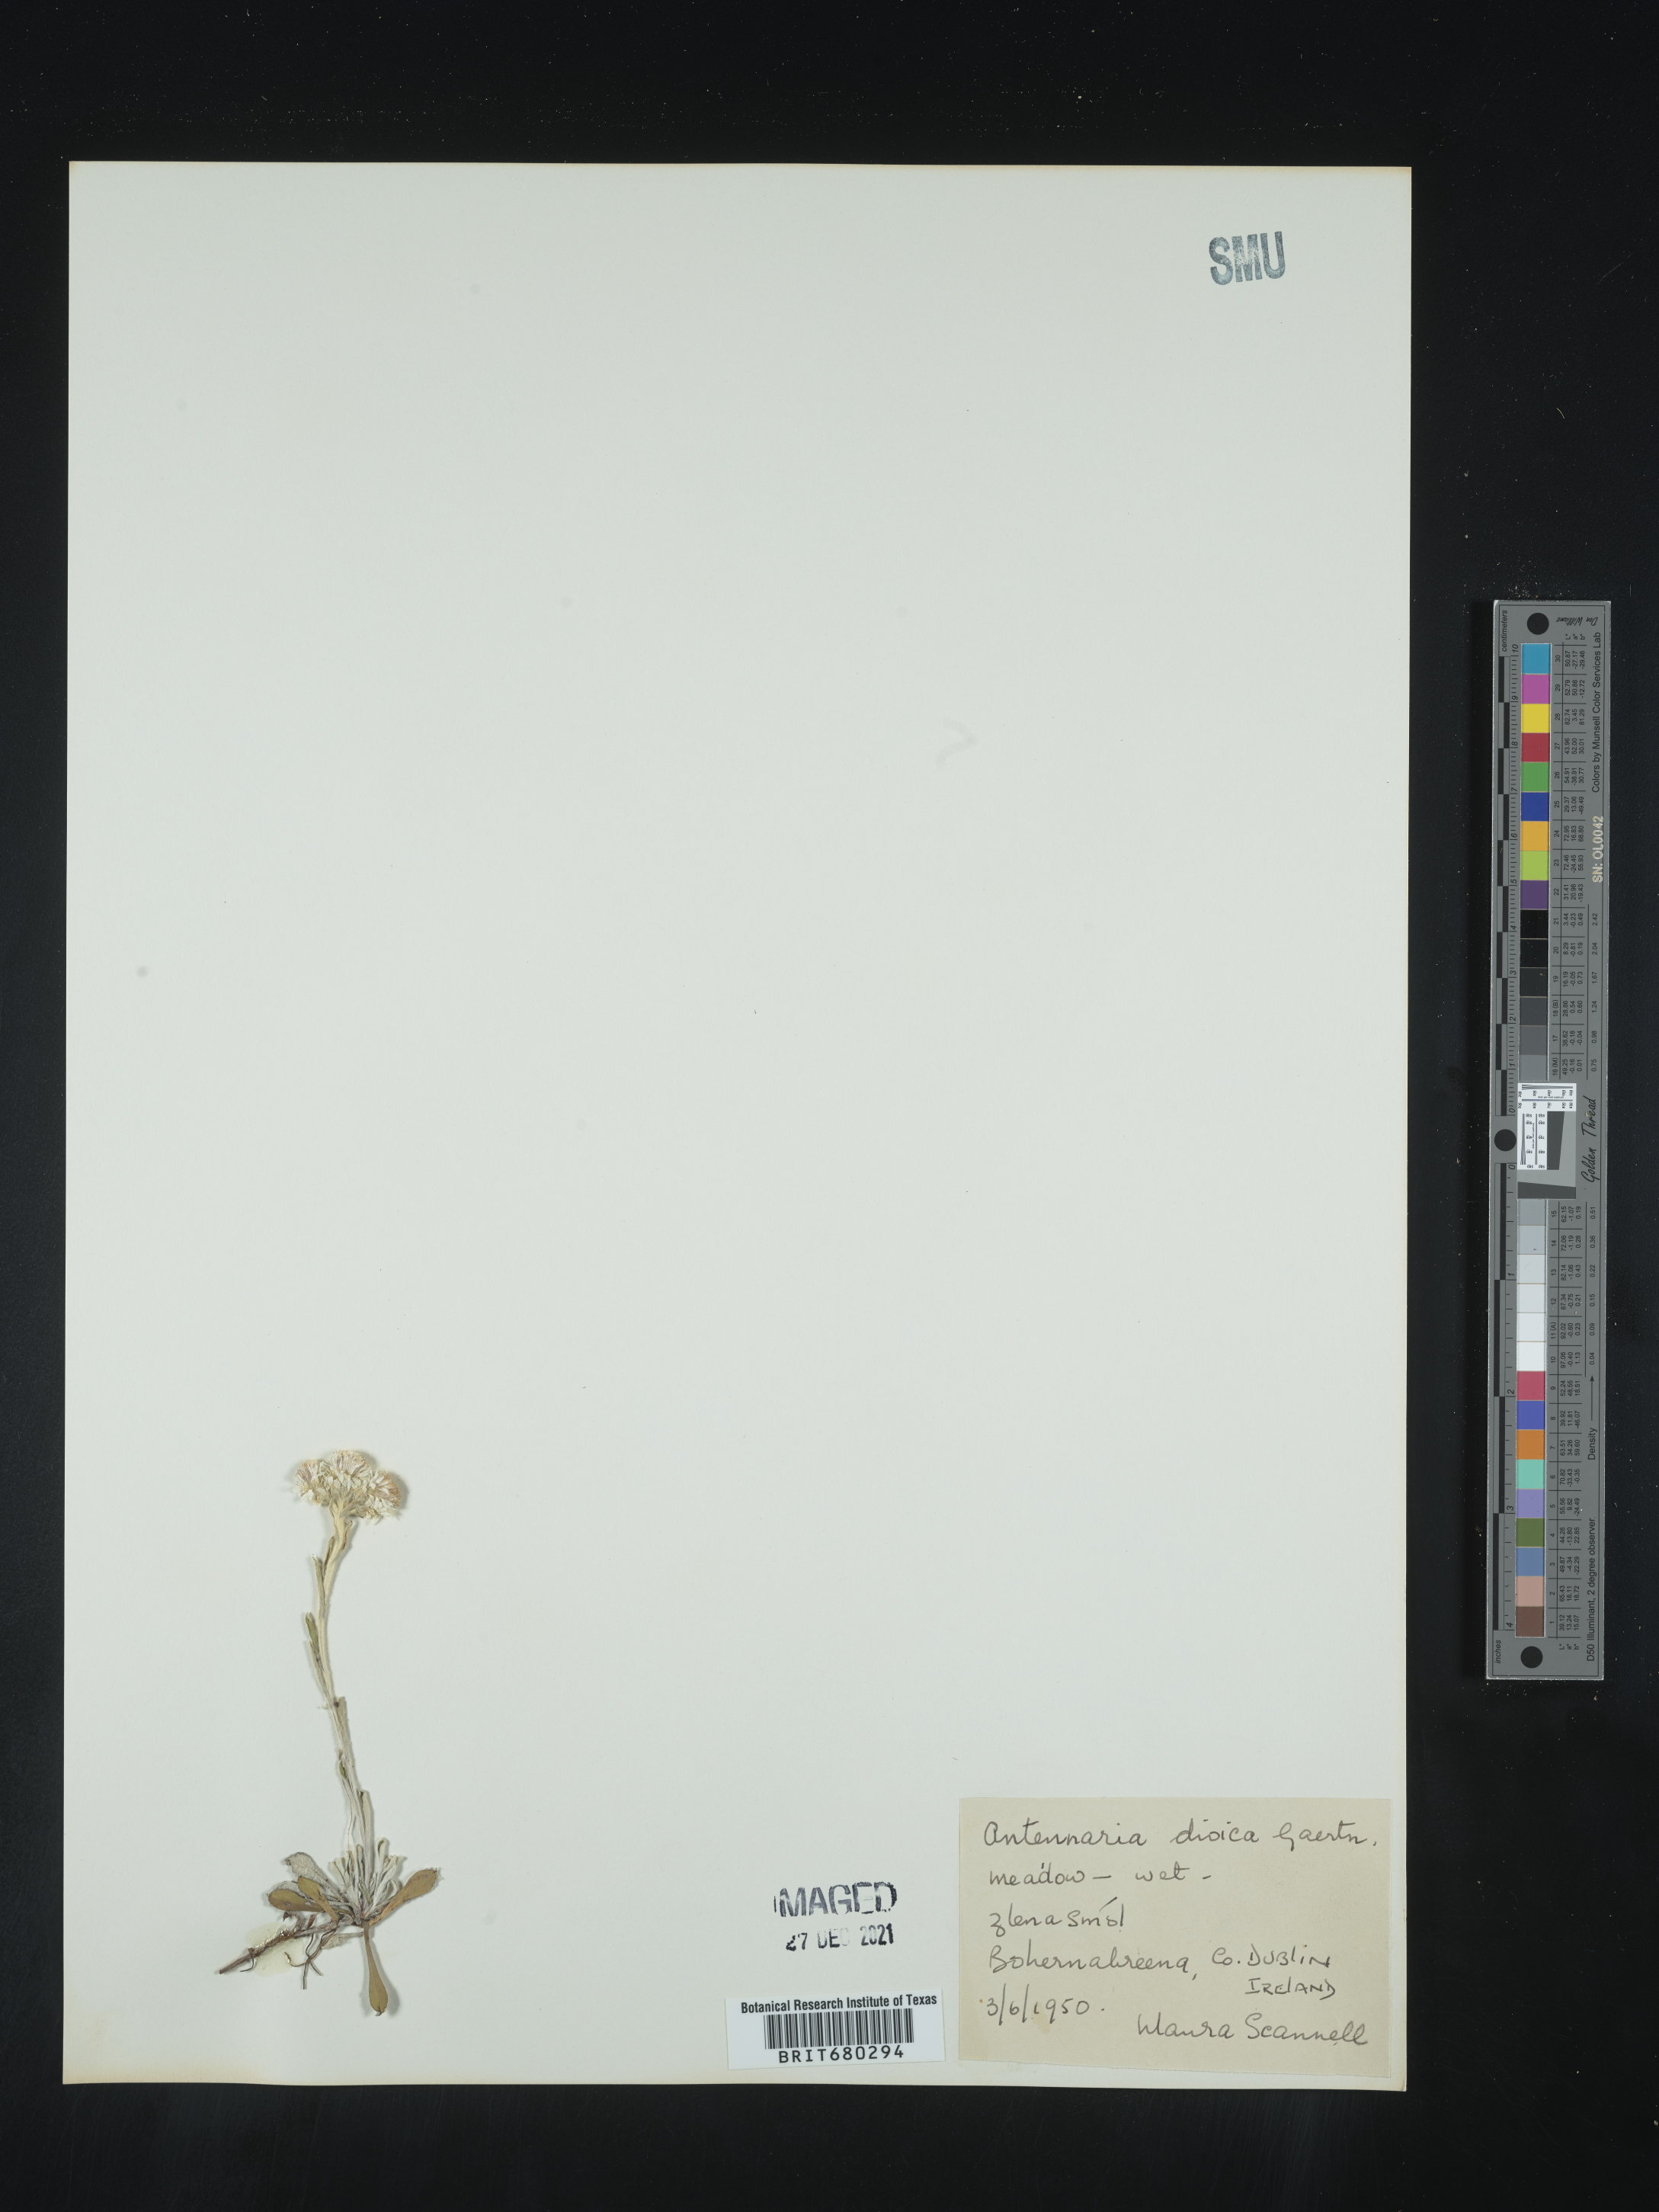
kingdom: Plantae
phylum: Tracheophyta
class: Magnoliopsida
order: Asterales
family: Asteraceae
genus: Antennaria
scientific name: Antennaria dioica
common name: Mountain everlasting
